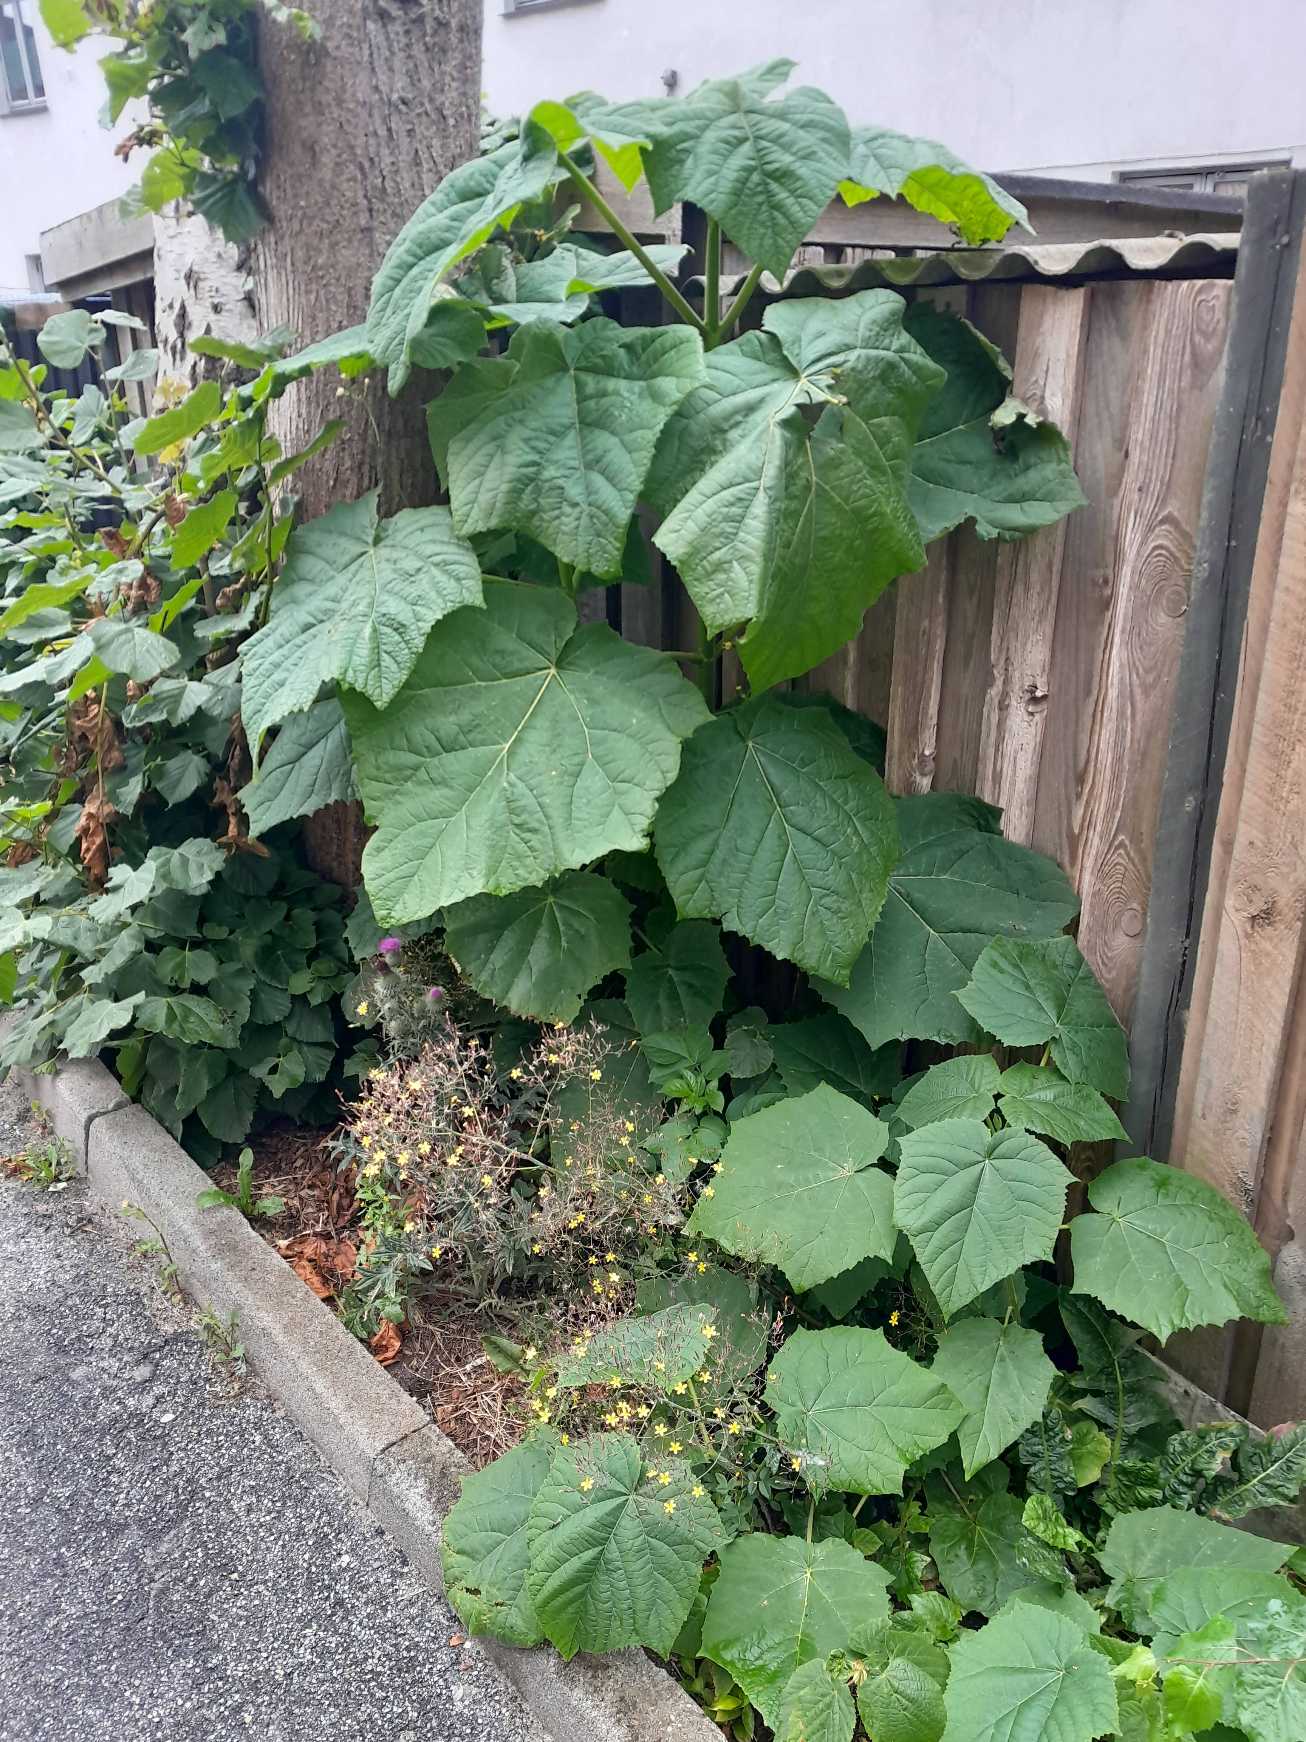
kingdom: Plantae
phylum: Tracheophyta
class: Magnoliopsida
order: Lamiales
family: Paulowniaceae
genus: Paulownia
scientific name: Paulownia tomentosa
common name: Kejsertræ
